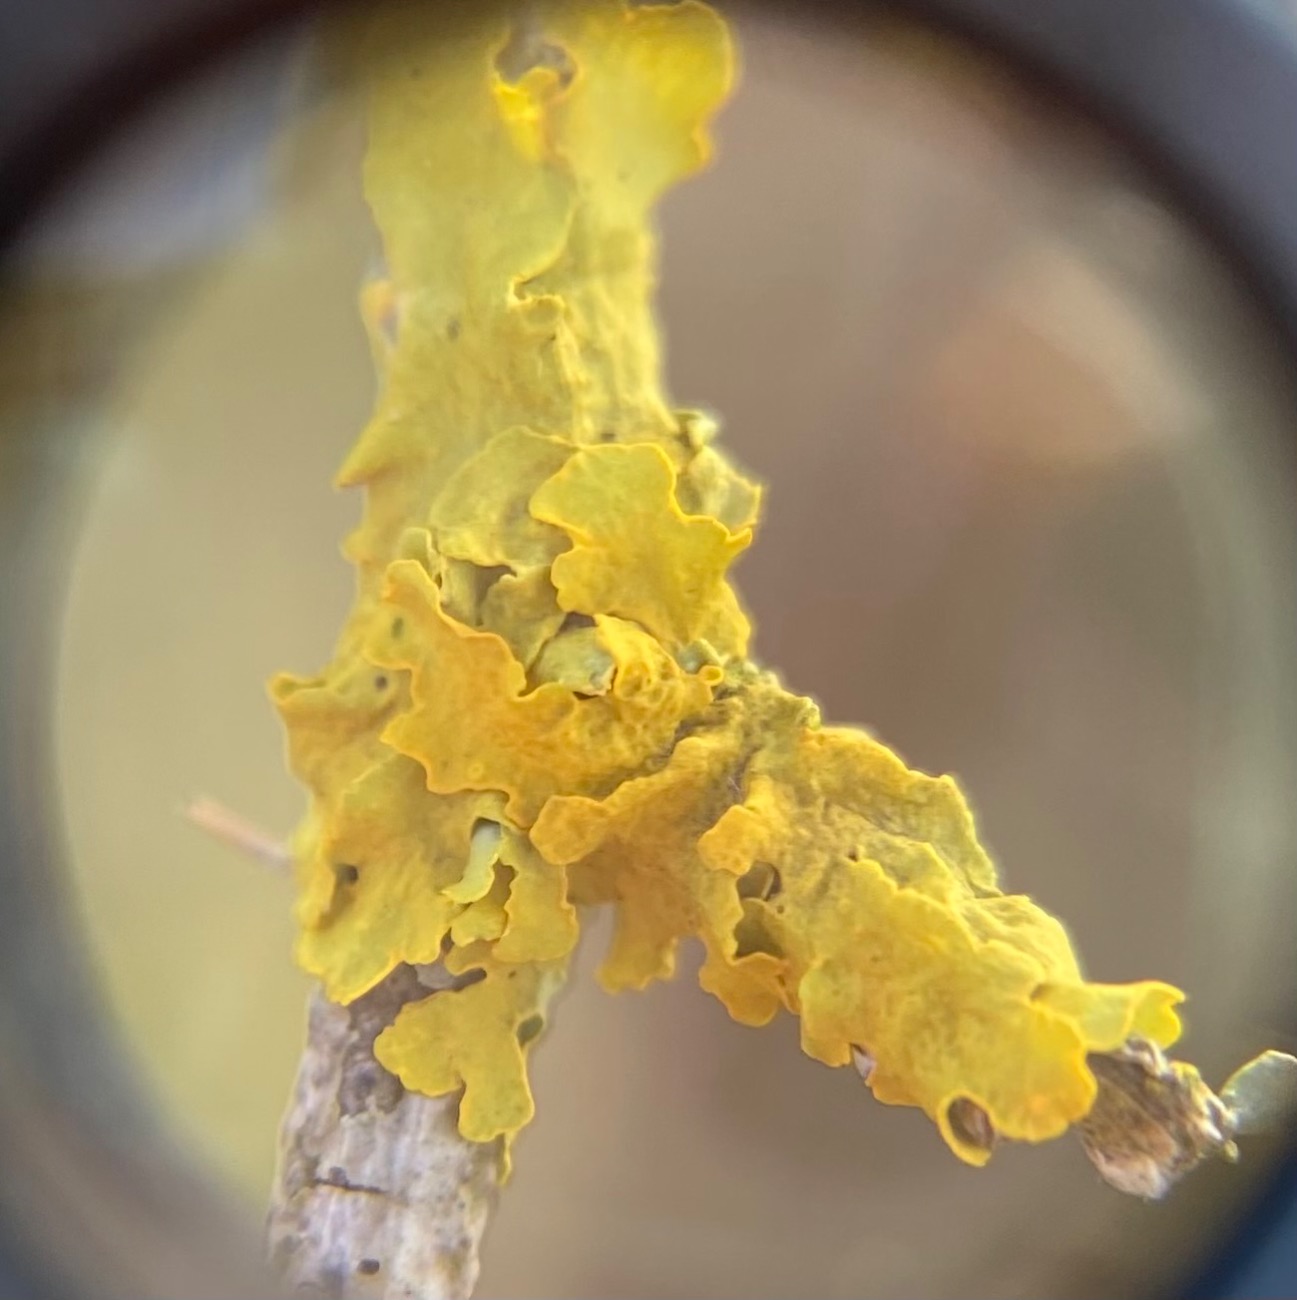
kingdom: Fungi
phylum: Ascomycota
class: Lecanoromycetes
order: Teloschistales
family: Teloschistaceae
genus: Xanthoria
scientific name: Xanthoria parietina
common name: Almindelig væggelav
